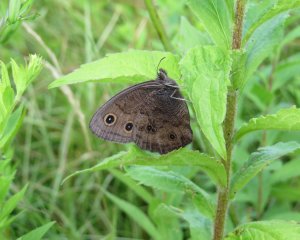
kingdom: Animalia
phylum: Arthropoda
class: Insecta
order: Lepidoptera
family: Nymphalidae
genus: Cercyonis
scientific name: Cercyonis pegala
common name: Common Wood-Nymph
